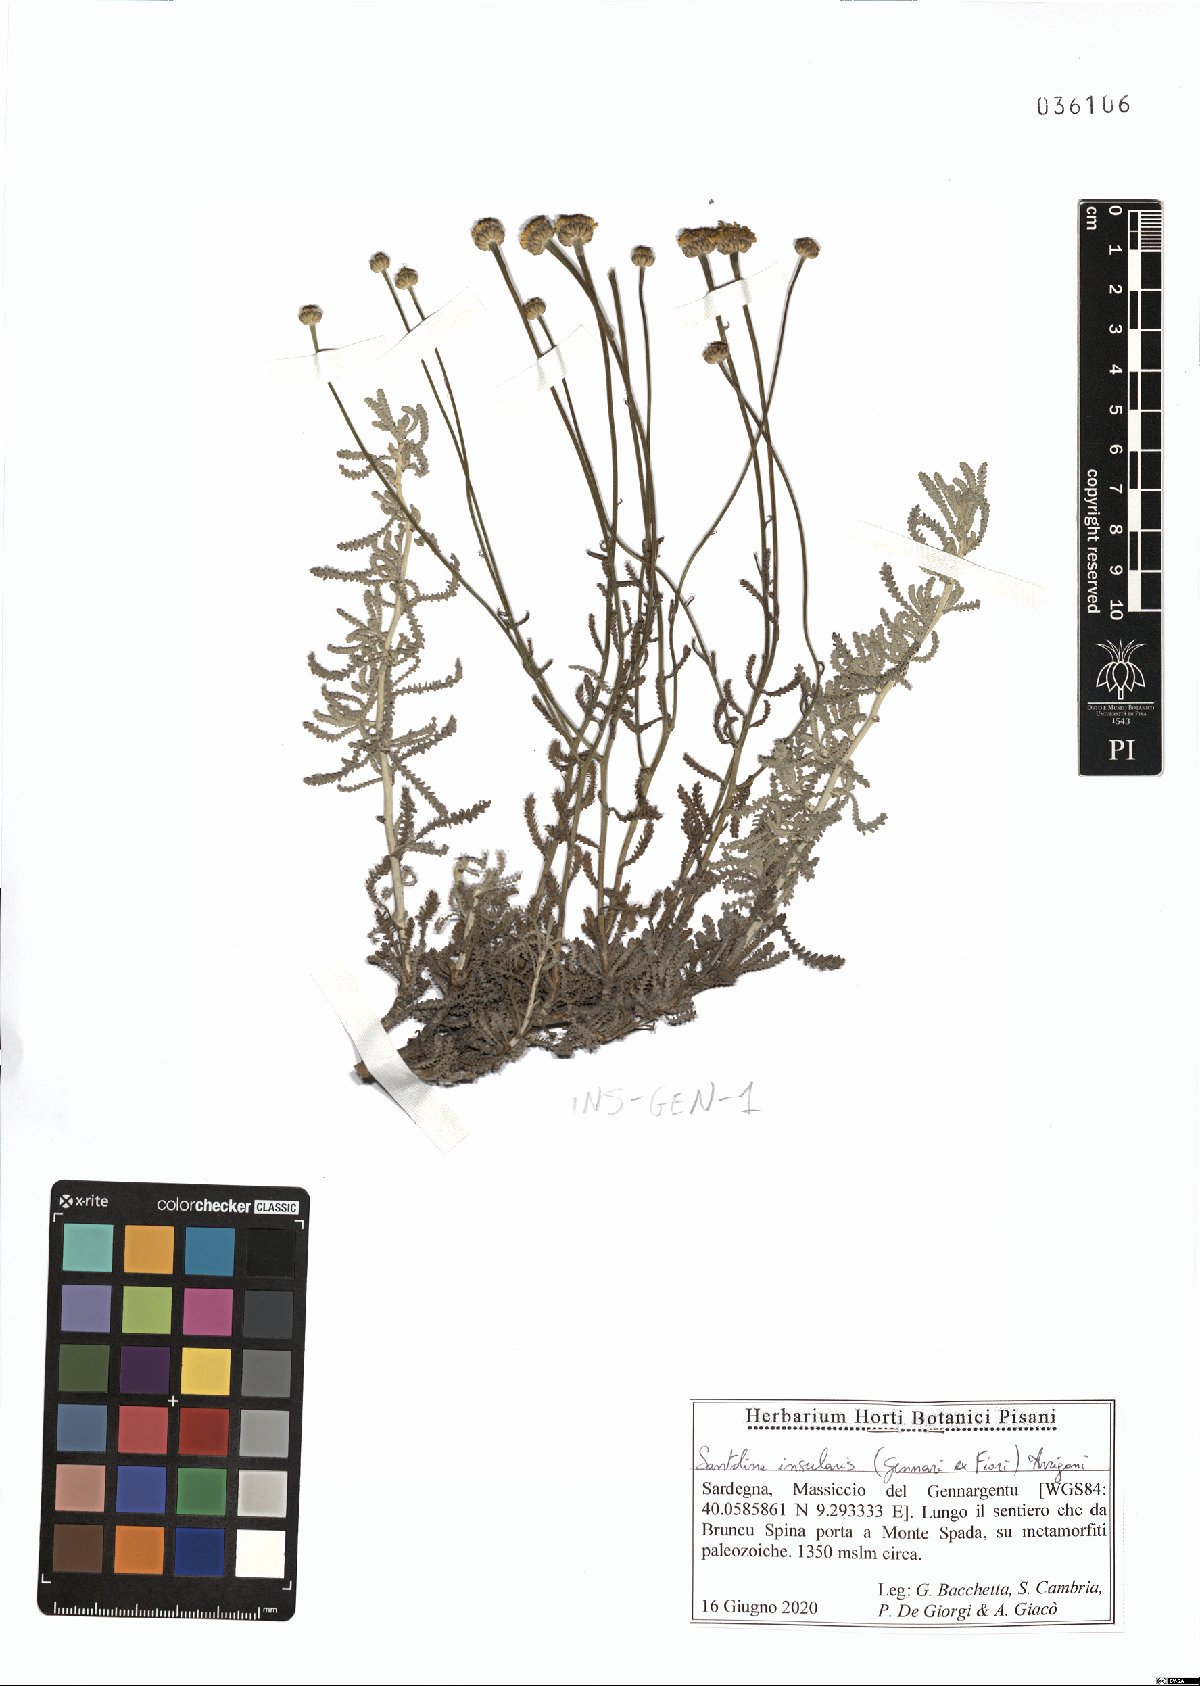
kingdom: Plantae
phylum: Tracheophyta
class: Magnoliopsida
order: Asterales
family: Asteraceae
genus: Santolina
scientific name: Santolina insularis
